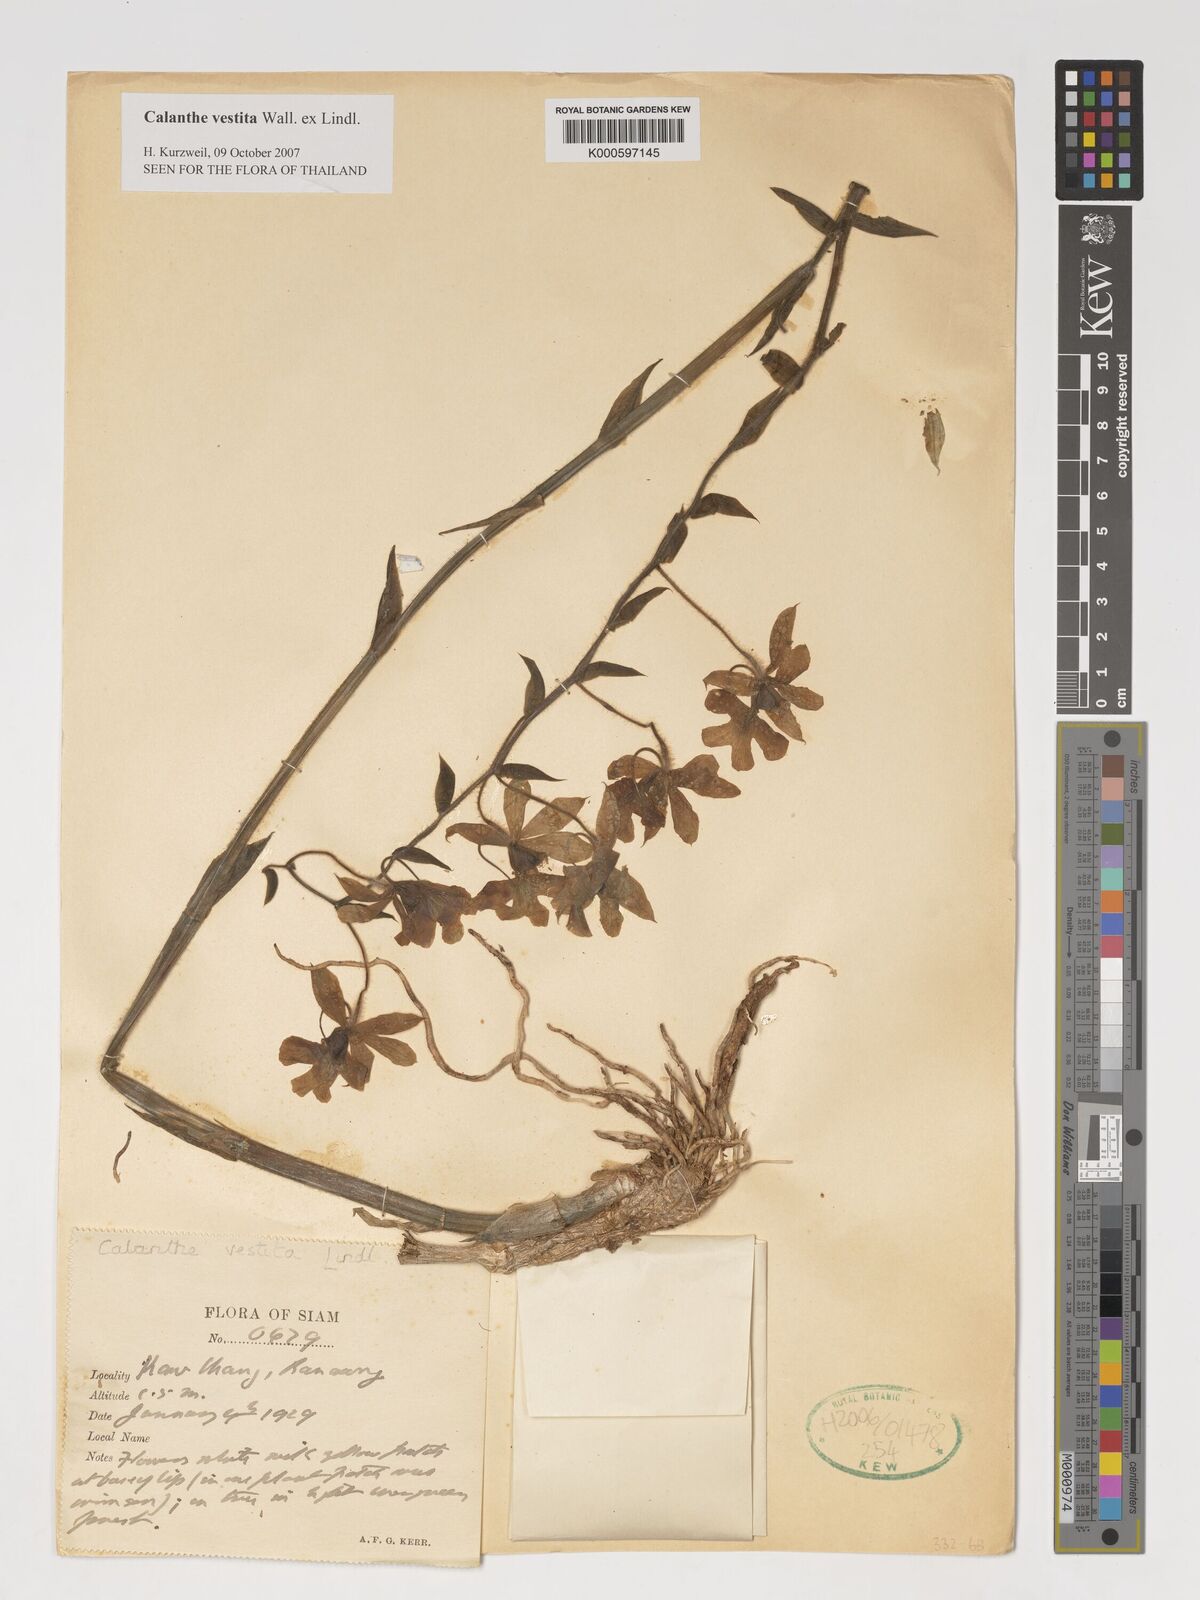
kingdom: Plantae
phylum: Tracheophyta
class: Liliopsida
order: Asparagales
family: Orchidaceae
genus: Calanthe
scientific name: Calanthe vestita
